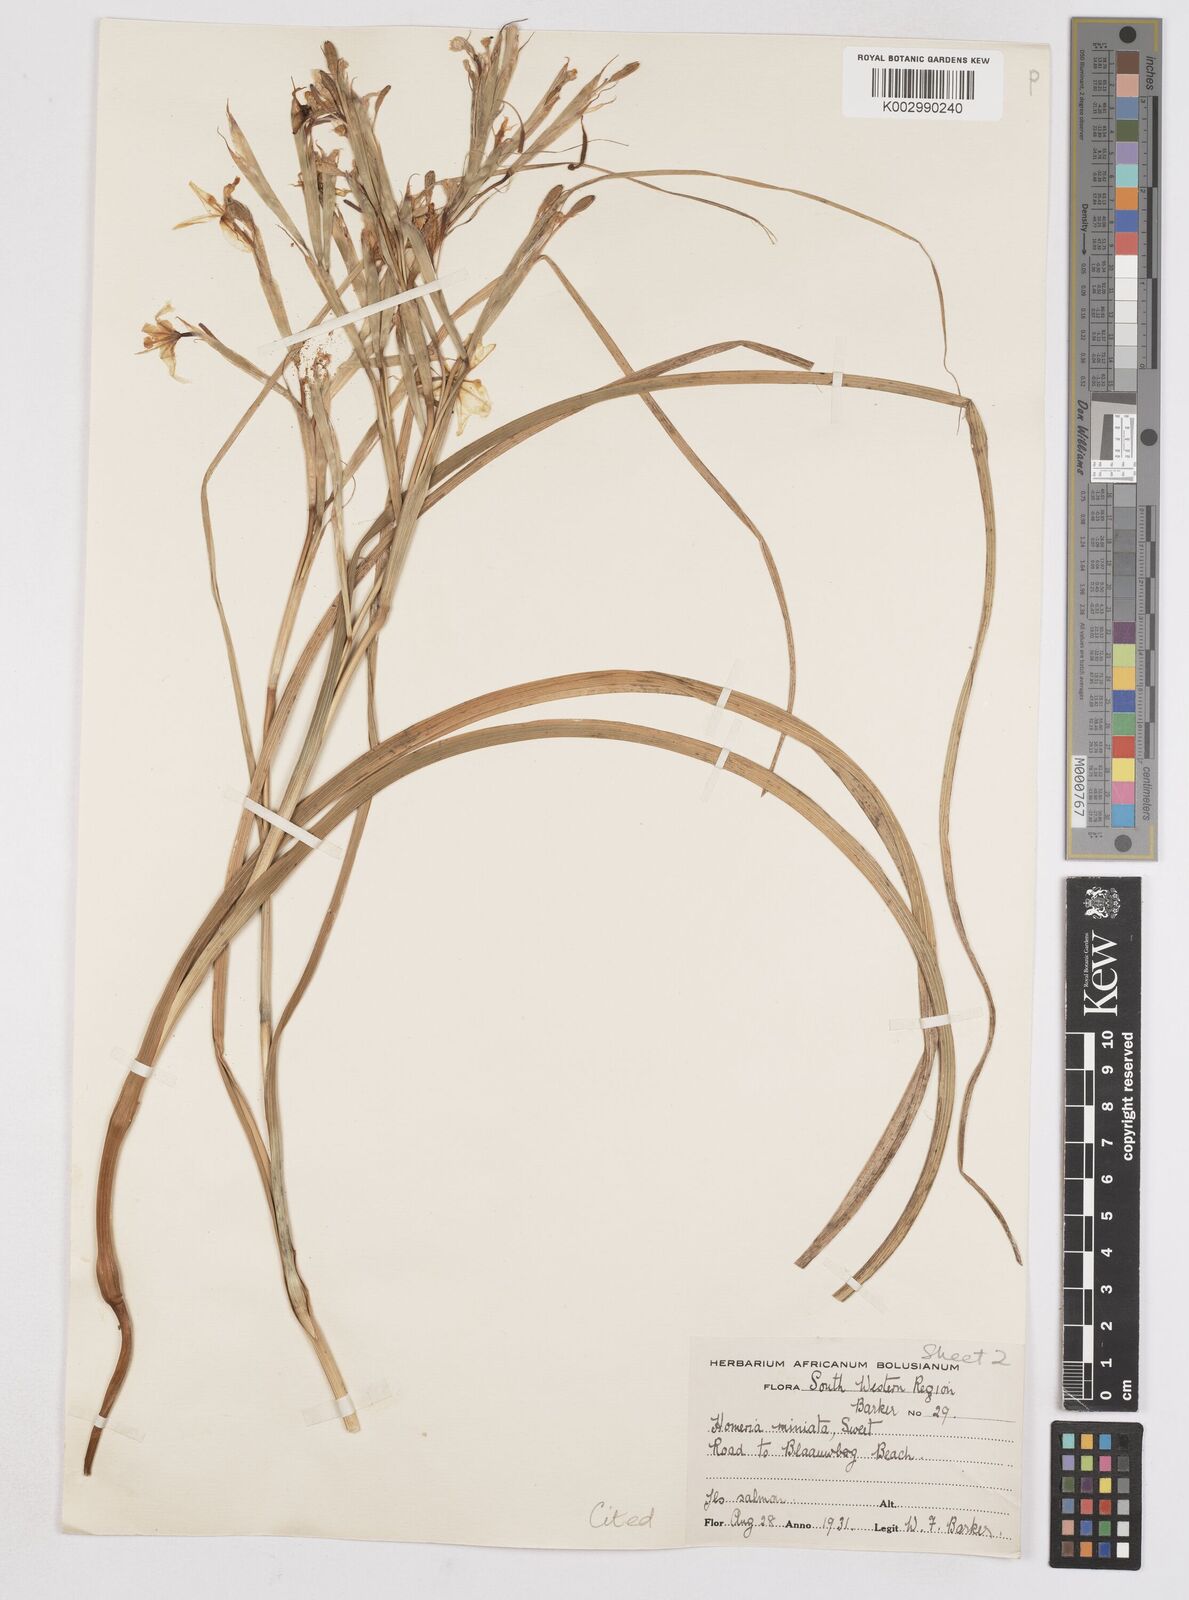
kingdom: Plantae
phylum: Tracheophyta
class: Liliopsida
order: Asparagales
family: Iridaceae
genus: Moraea
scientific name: Moraea miniata
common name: Two-leaf cape-tulip
